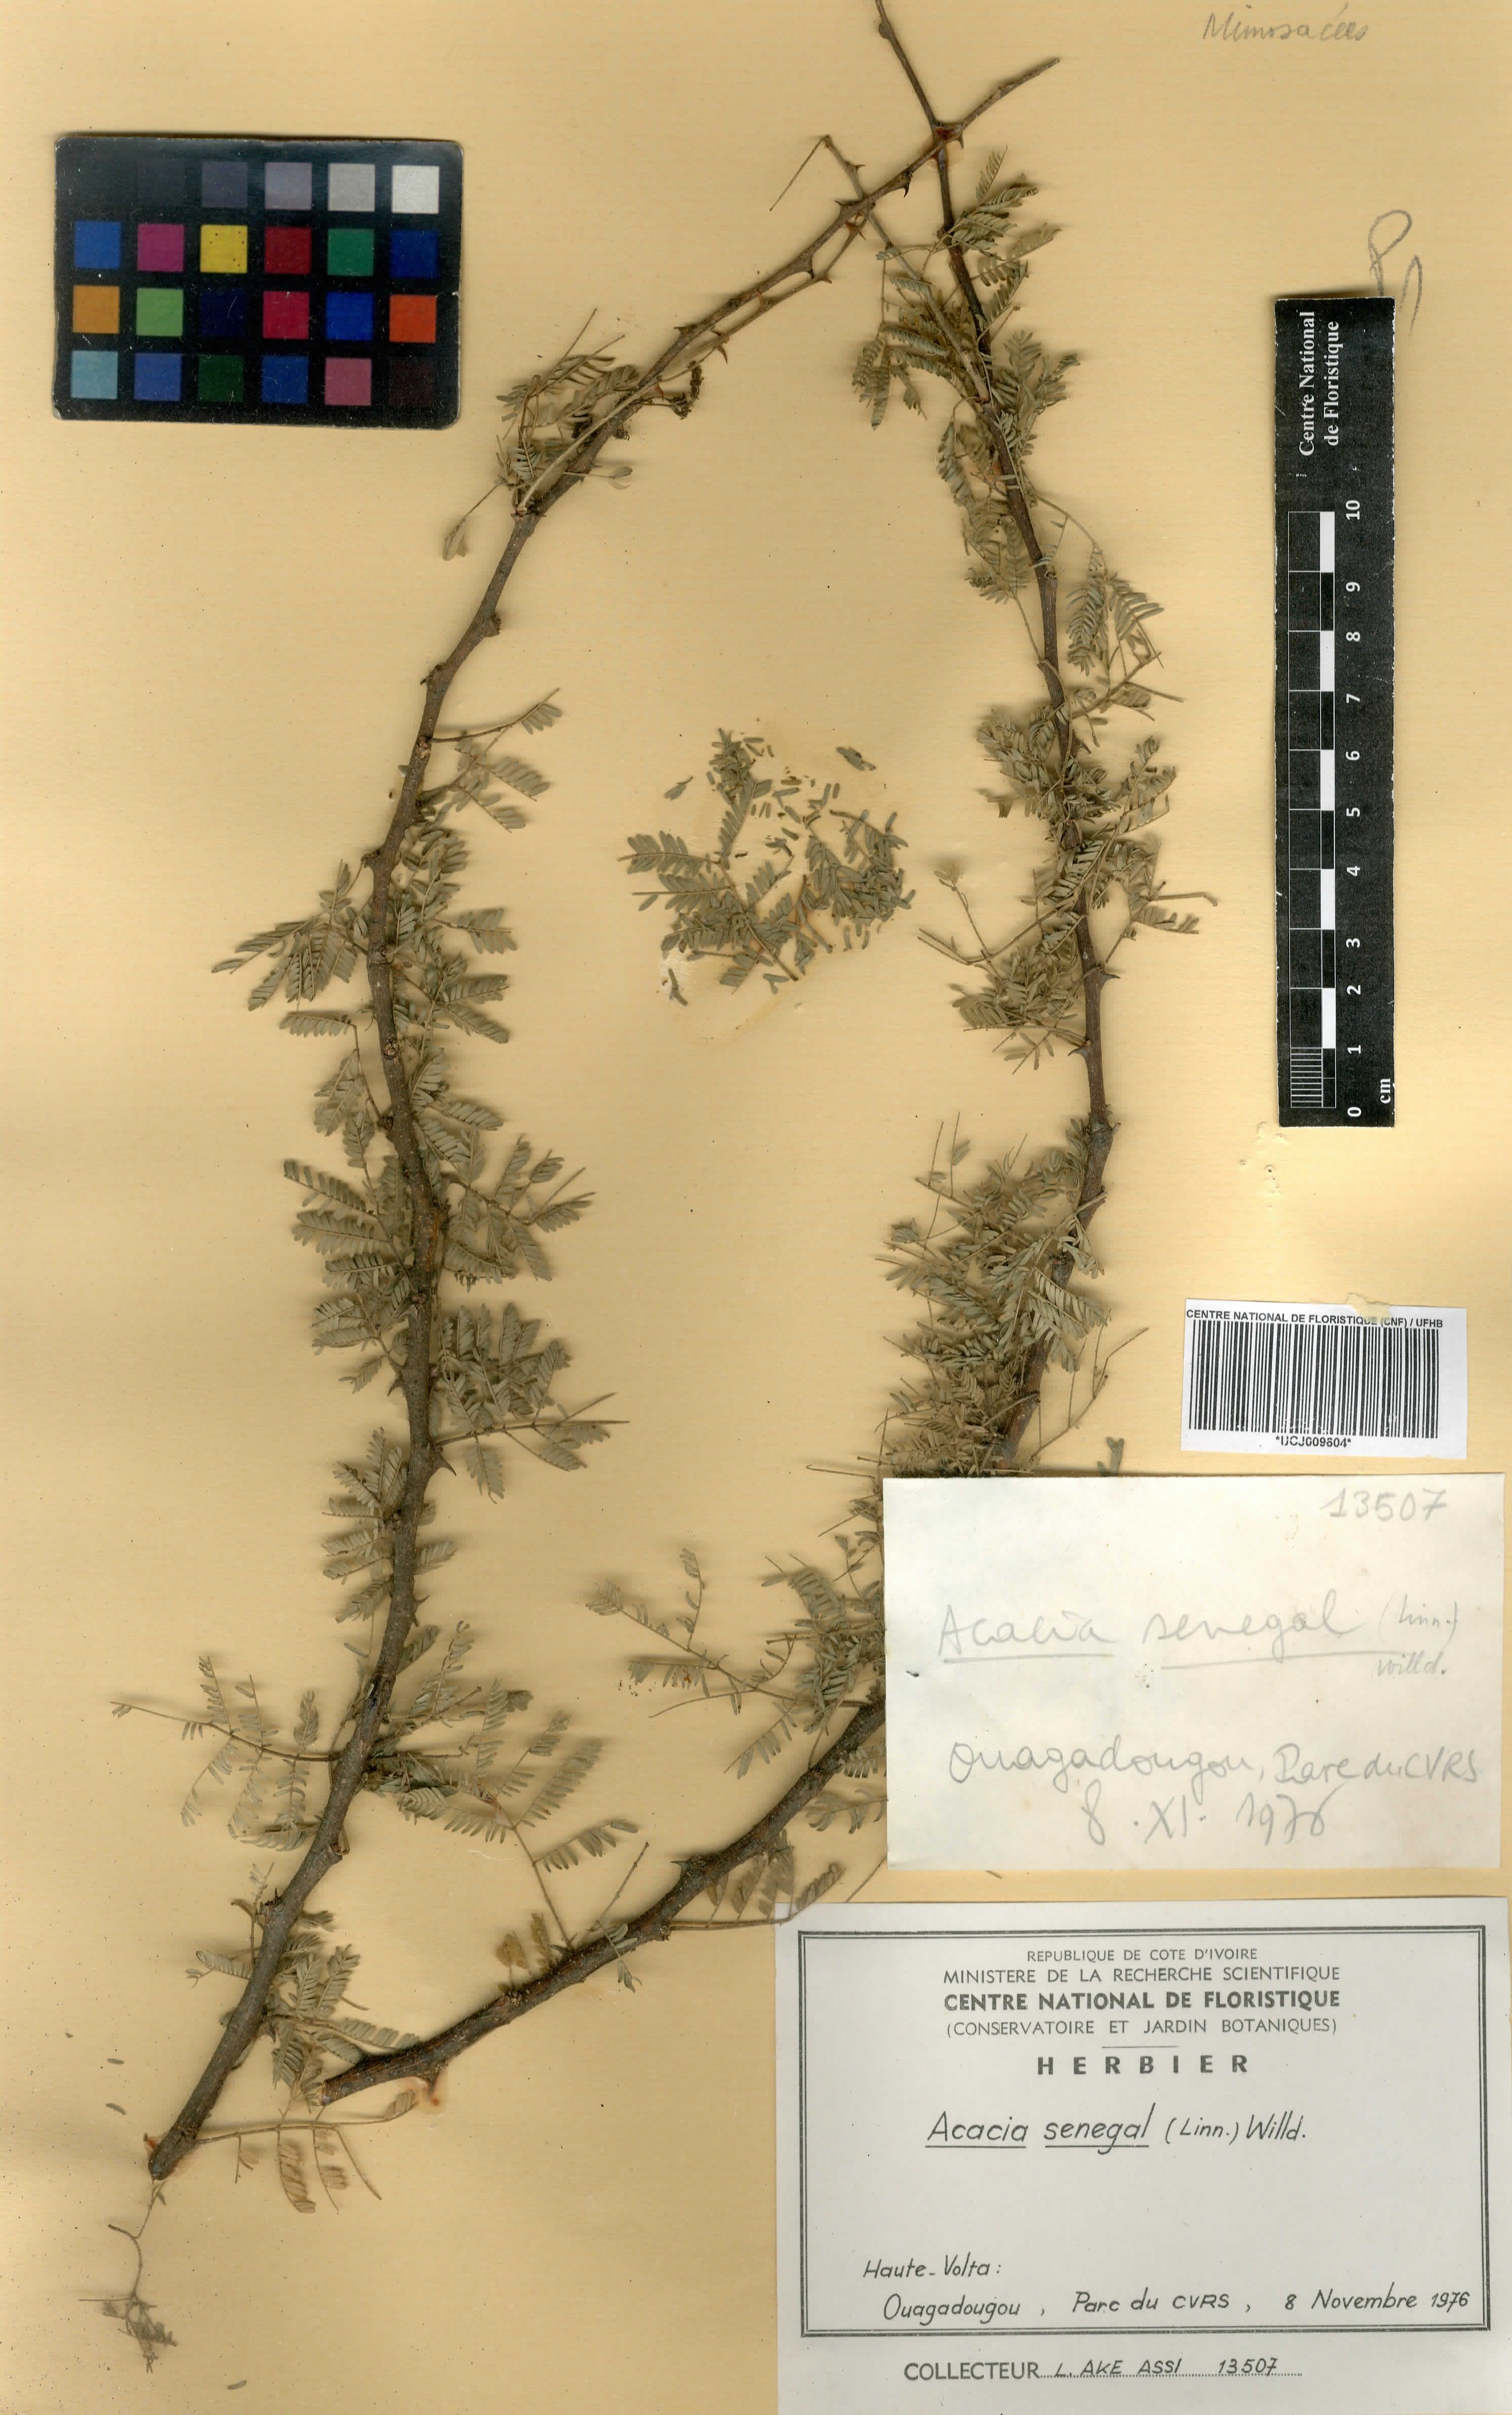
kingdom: Plantae
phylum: Tracheophyta
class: Magnoliopsida
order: Fabales
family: Fabaceae
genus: Senegalia
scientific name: Senegalia senegal
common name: Senegal-gum
